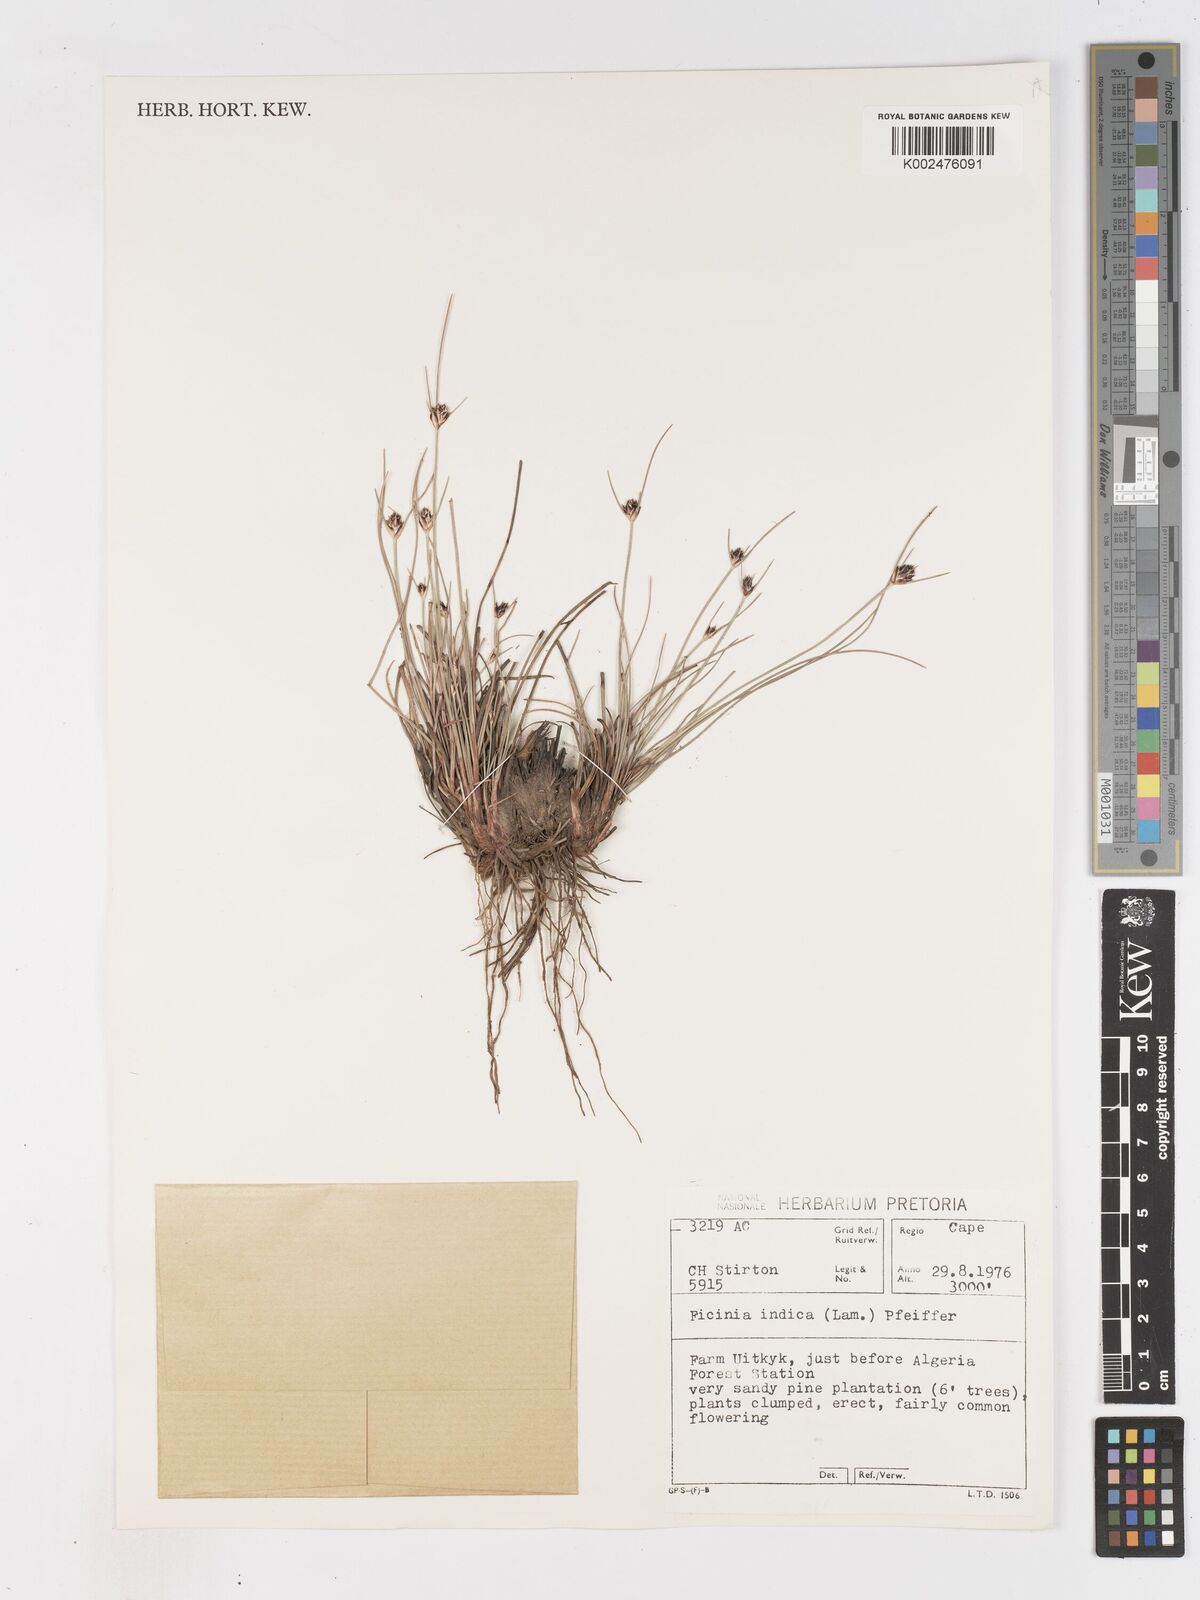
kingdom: Plantae
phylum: Tracheophyta
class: Liliopsida
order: Poales
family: Cyperaceae
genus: Ficinia
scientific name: Ficinia indica
